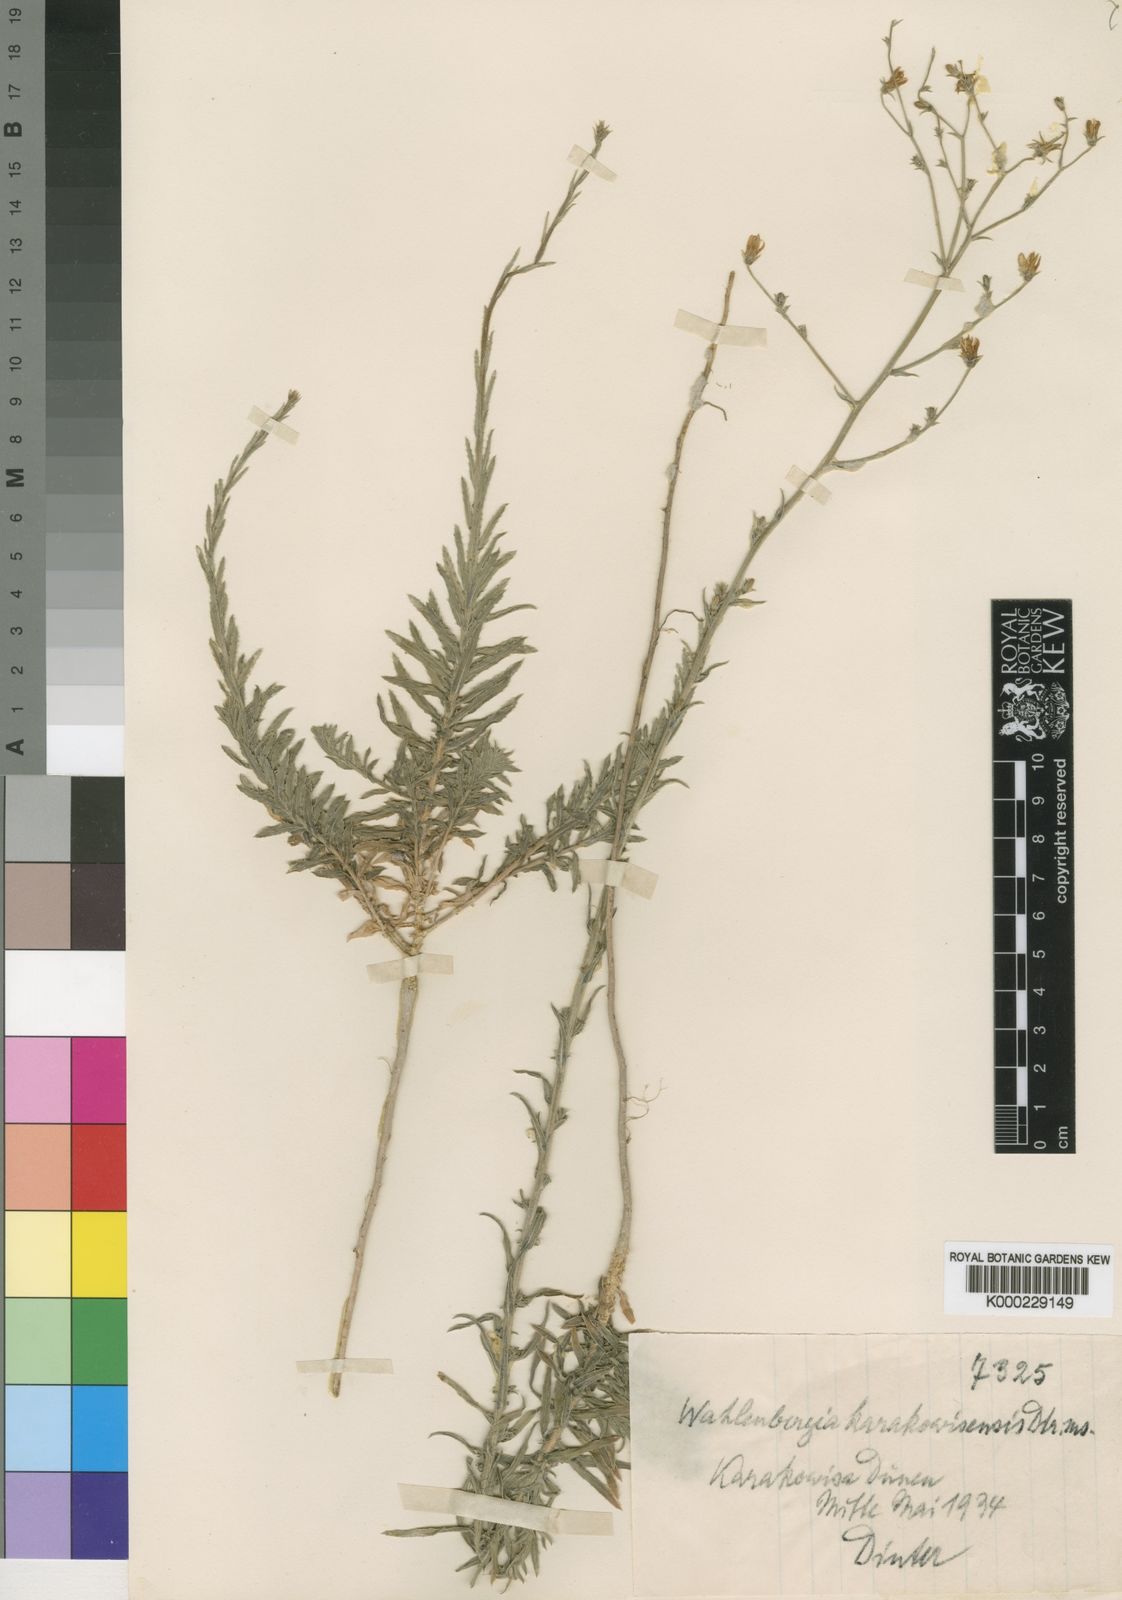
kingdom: Plantae
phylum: Tracheophyta
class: Magnoliopsida
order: Asterales
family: Campanulaceae
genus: Wahlenbergia
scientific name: Wahlenbergia
